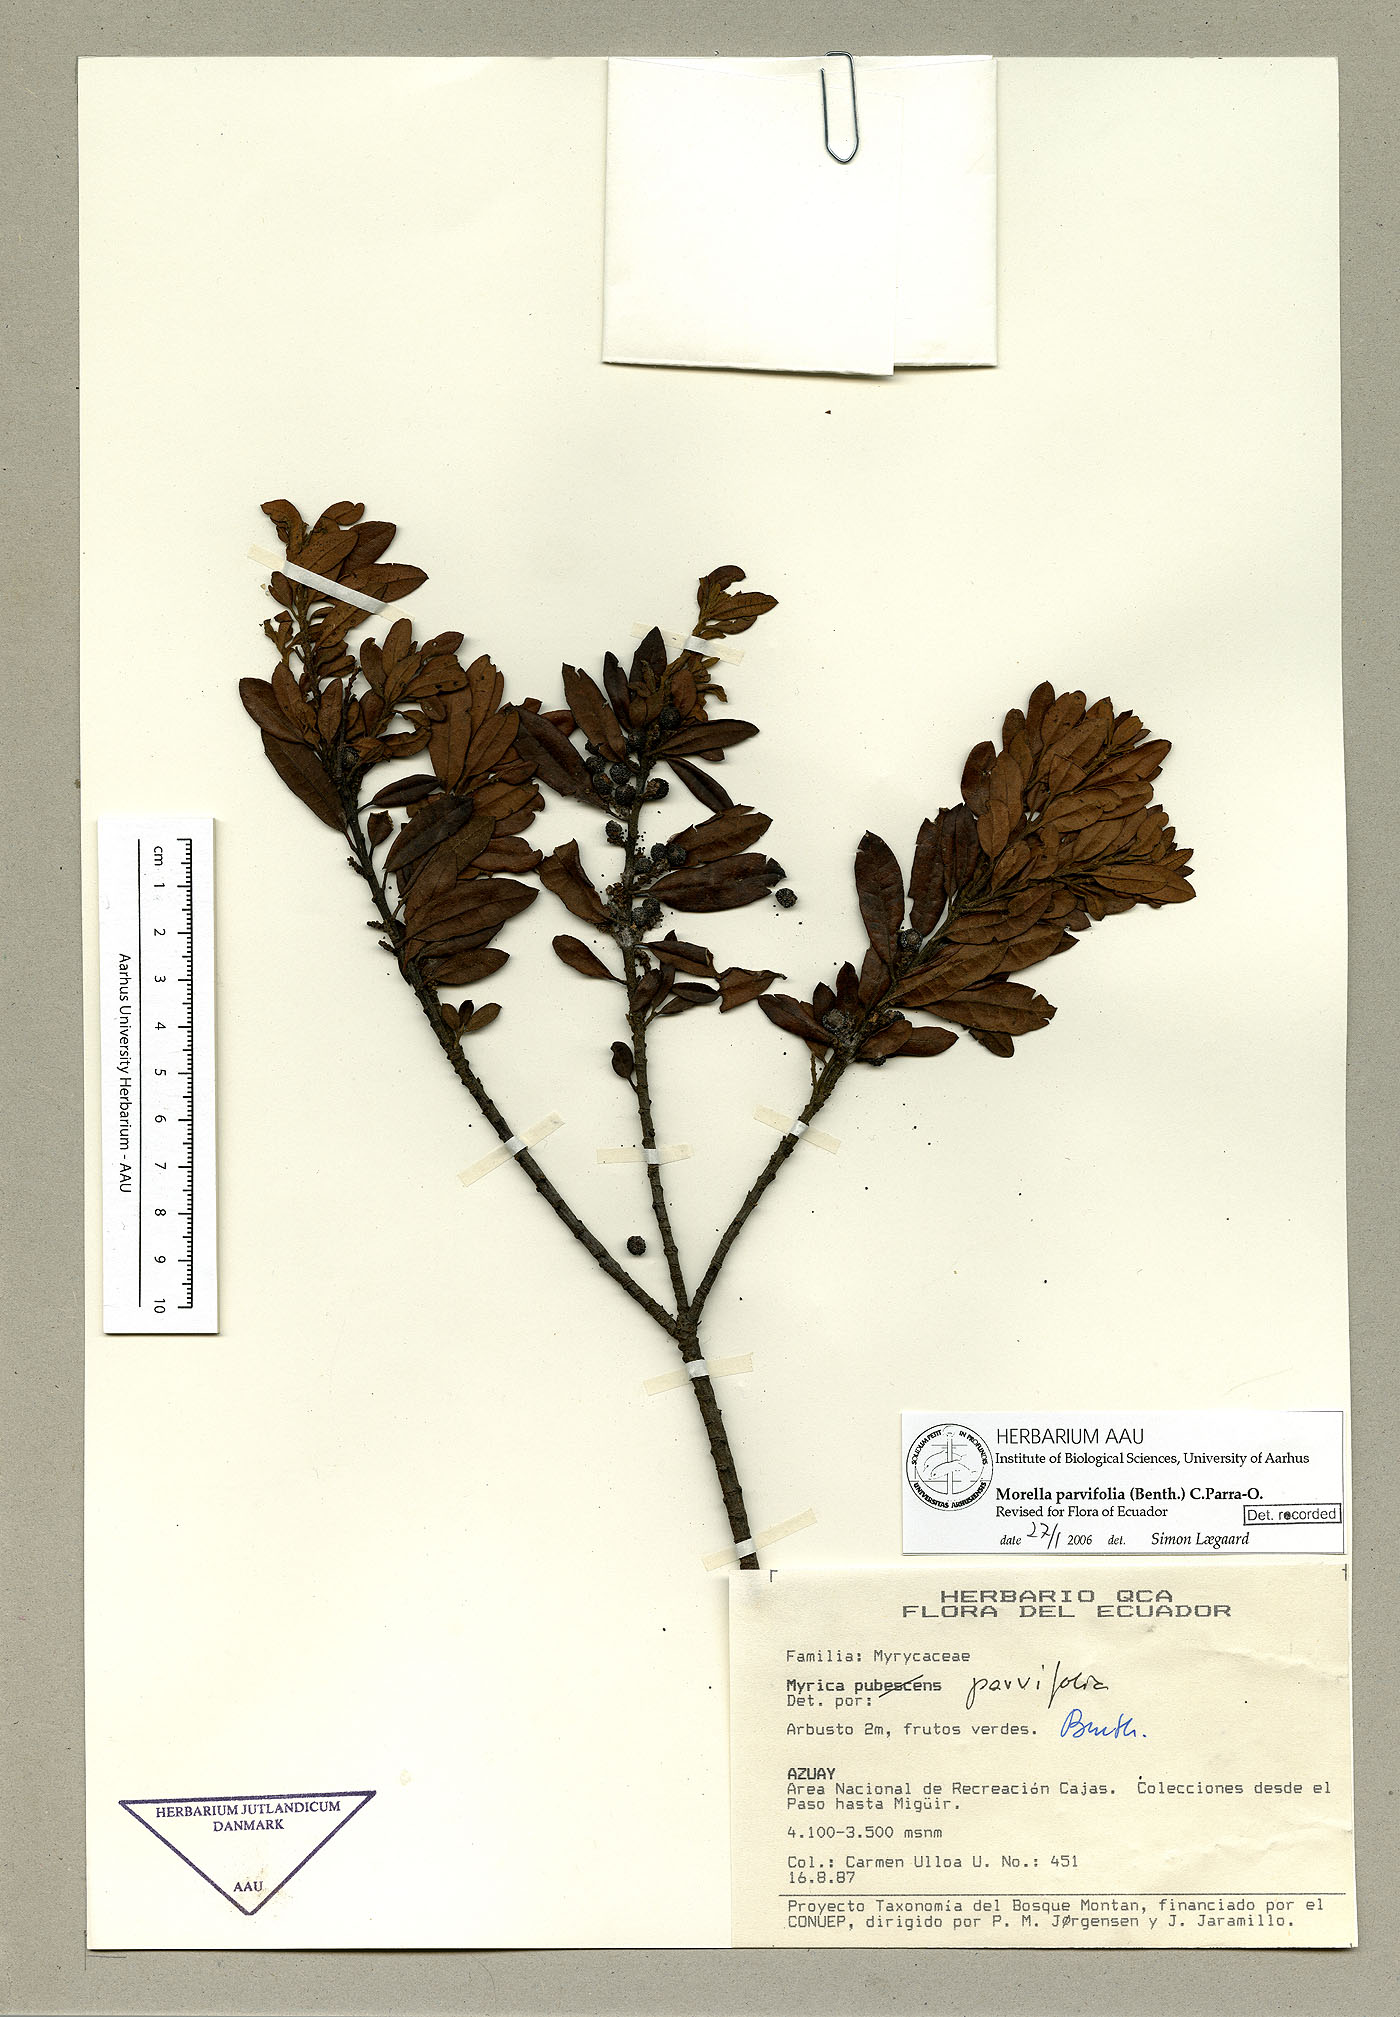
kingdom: Plantae
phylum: Tracheophyta
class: Magnoliopsida
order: Fagales
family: Myricaceae
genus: Morella
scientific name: Morella parvifolia
